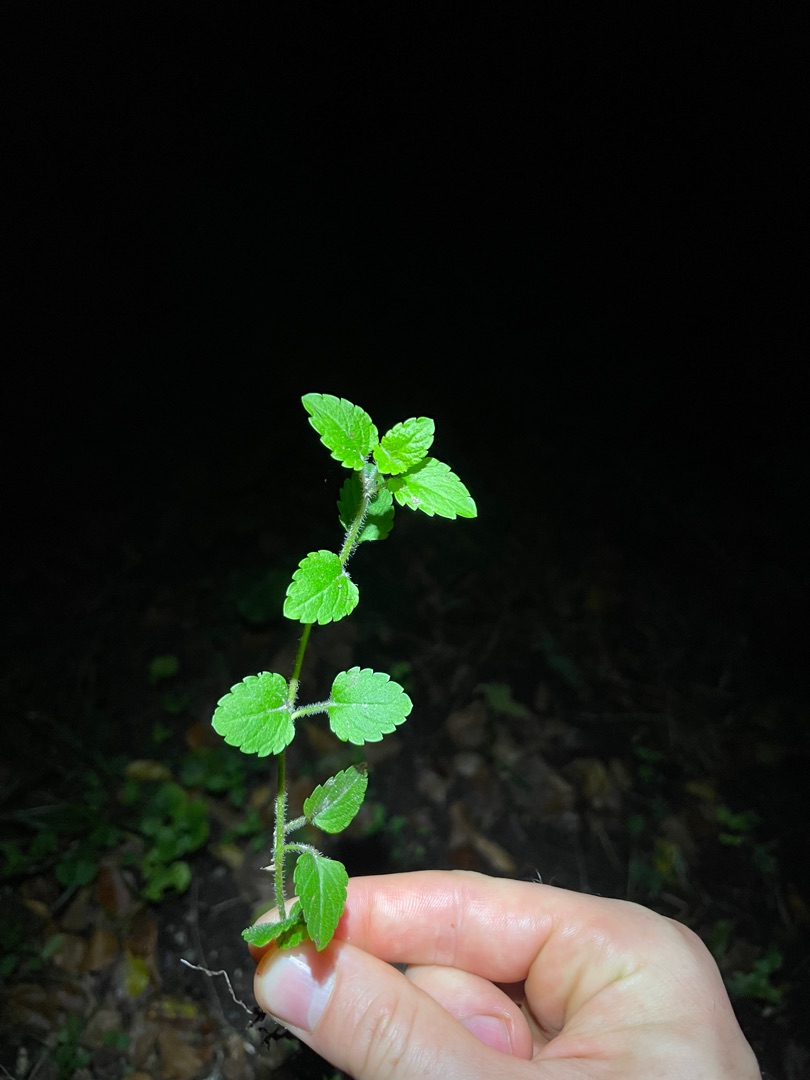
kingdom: Plantae
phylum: Tracheophyta
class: Magnoliopsida
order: Lamiales
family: Plantaginaceae
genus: Veronica
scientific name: Veronica montana
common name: Bjerg-ærenpris
